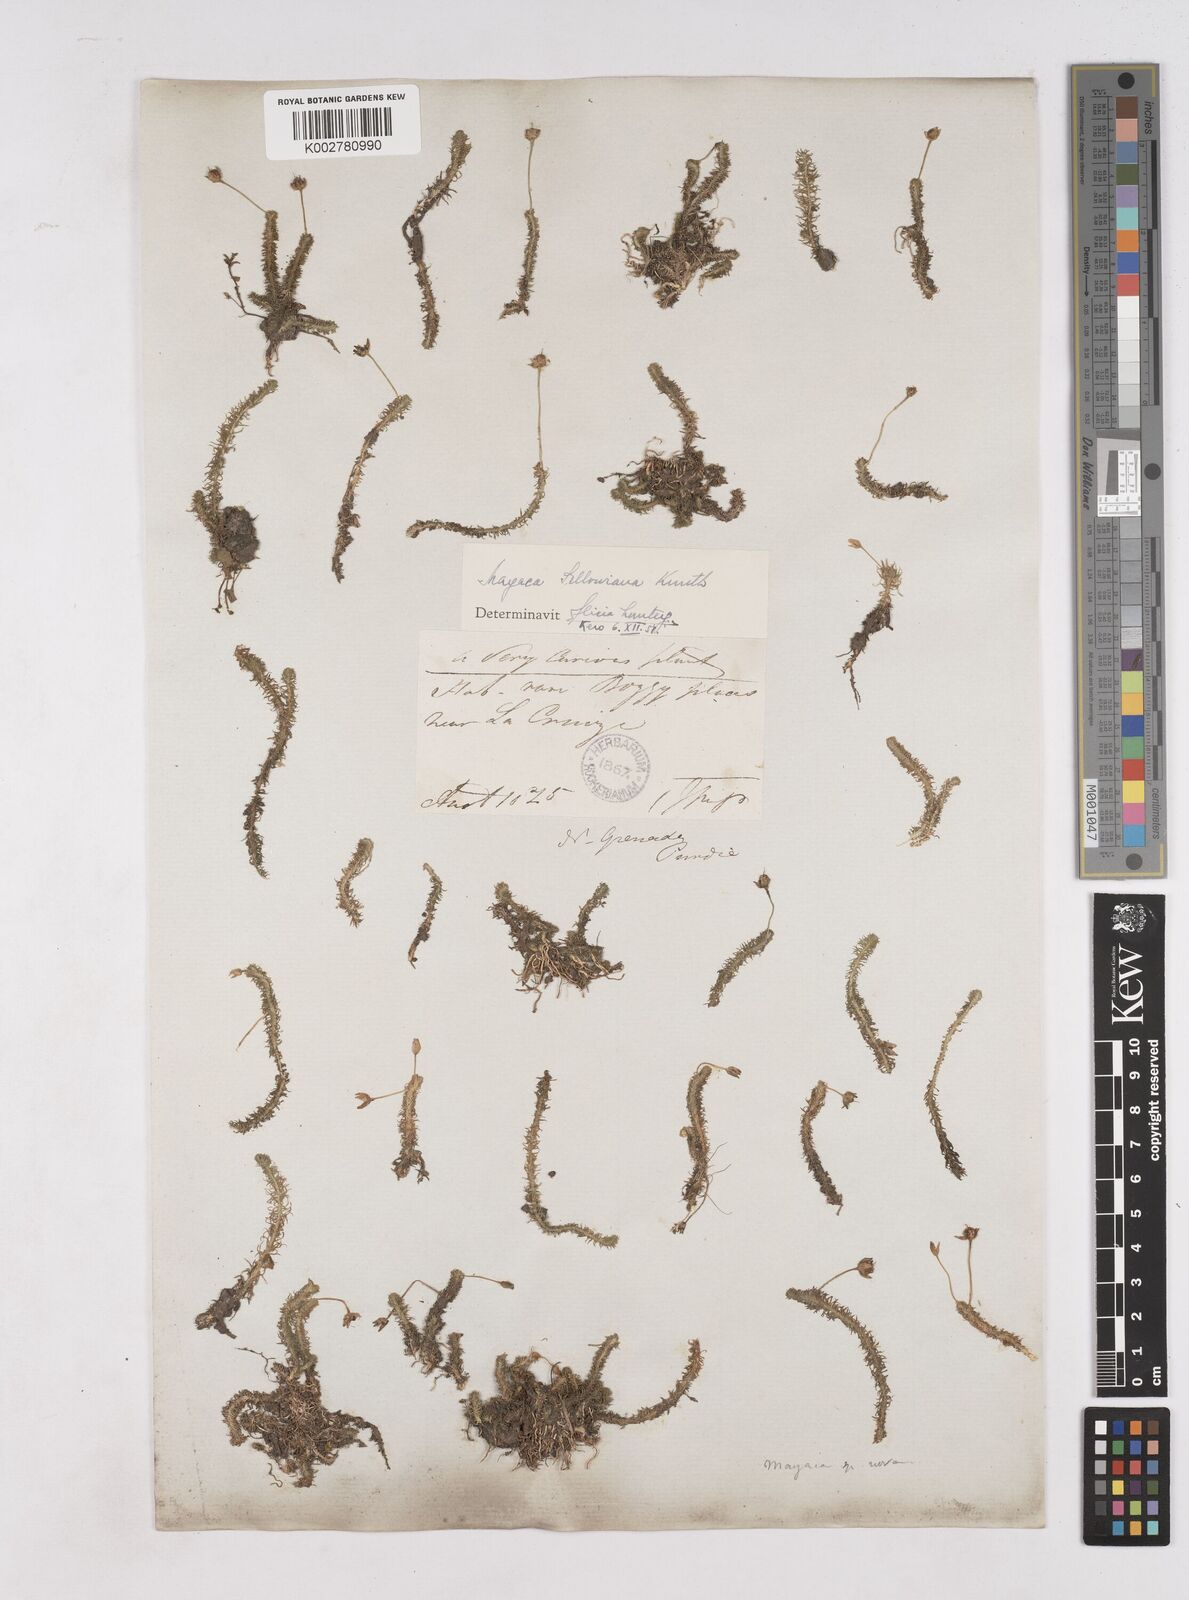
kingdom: Plantae
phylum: Tracheophyta
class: Liliopsida
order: Poales
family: Mayacaceae
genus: Mayaca
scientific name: Mayaca sellowiana
